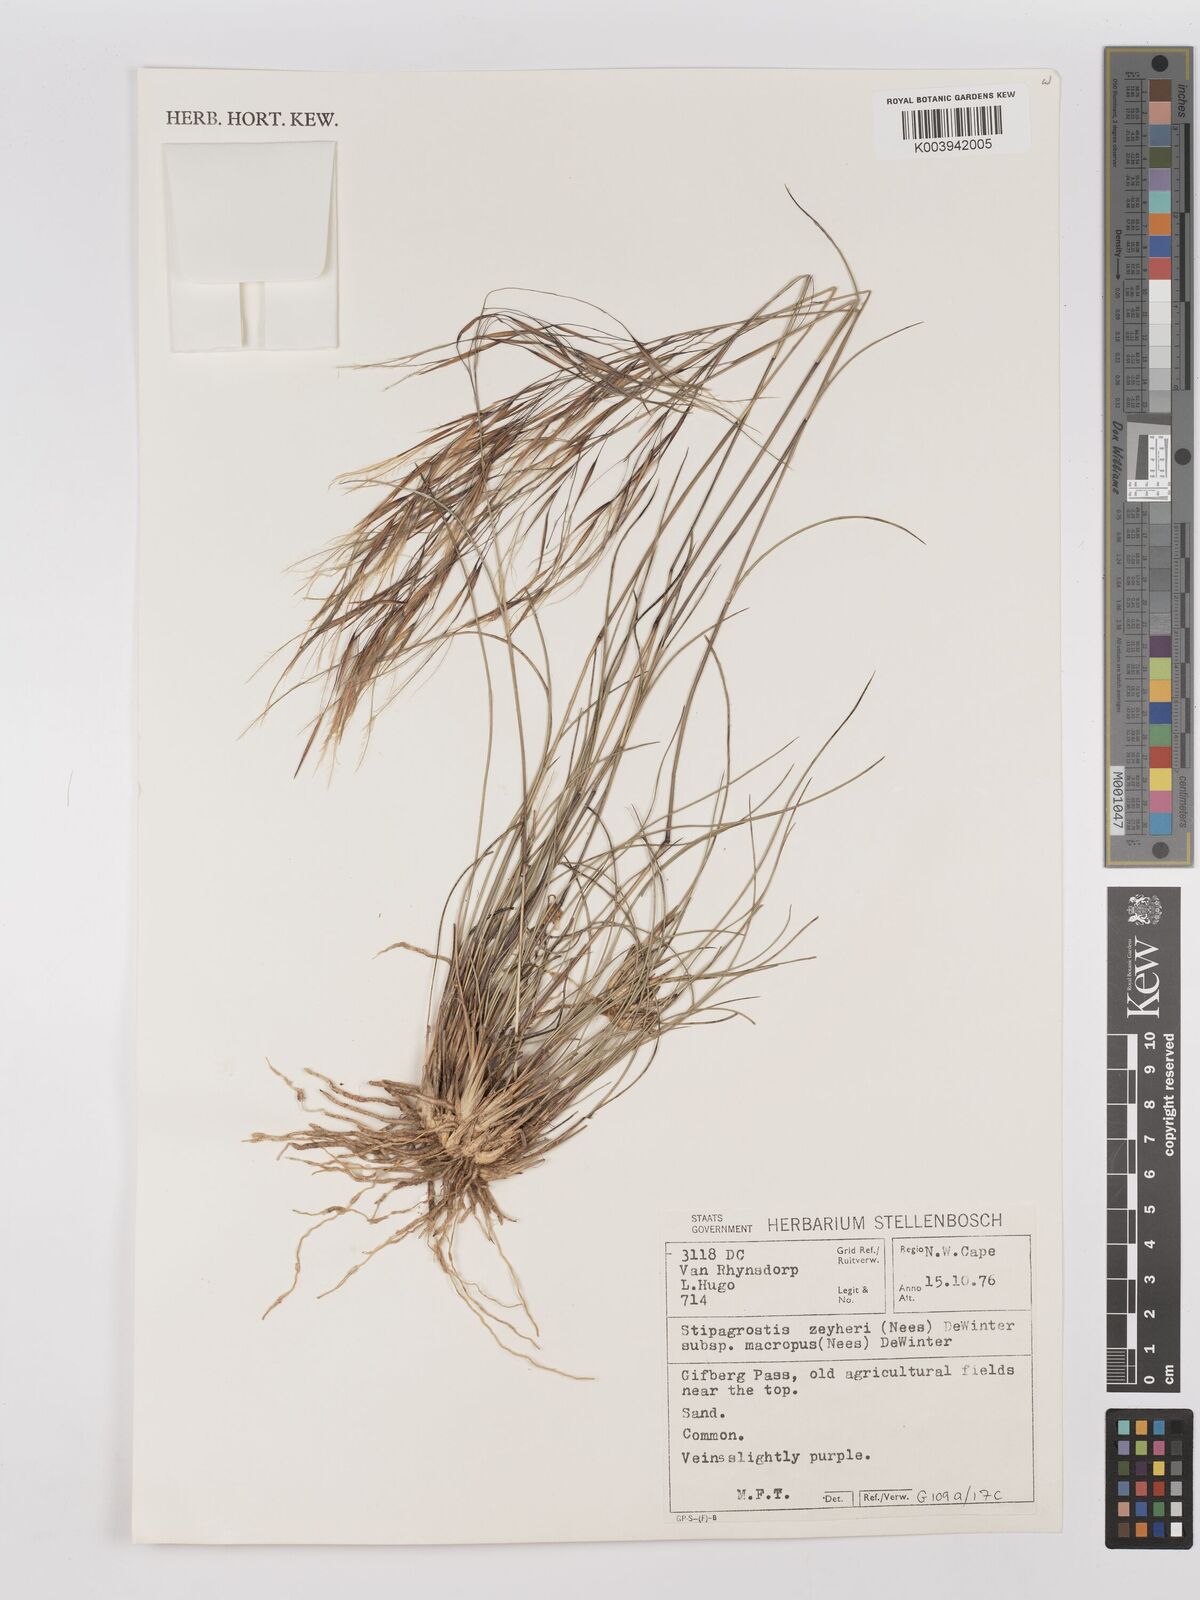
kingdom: Plantae
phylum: Tracheophyta
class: Liliopsida
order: Poales
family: Poaceae
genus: Stipagrostis
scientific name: Stipagrostis zeyheri
